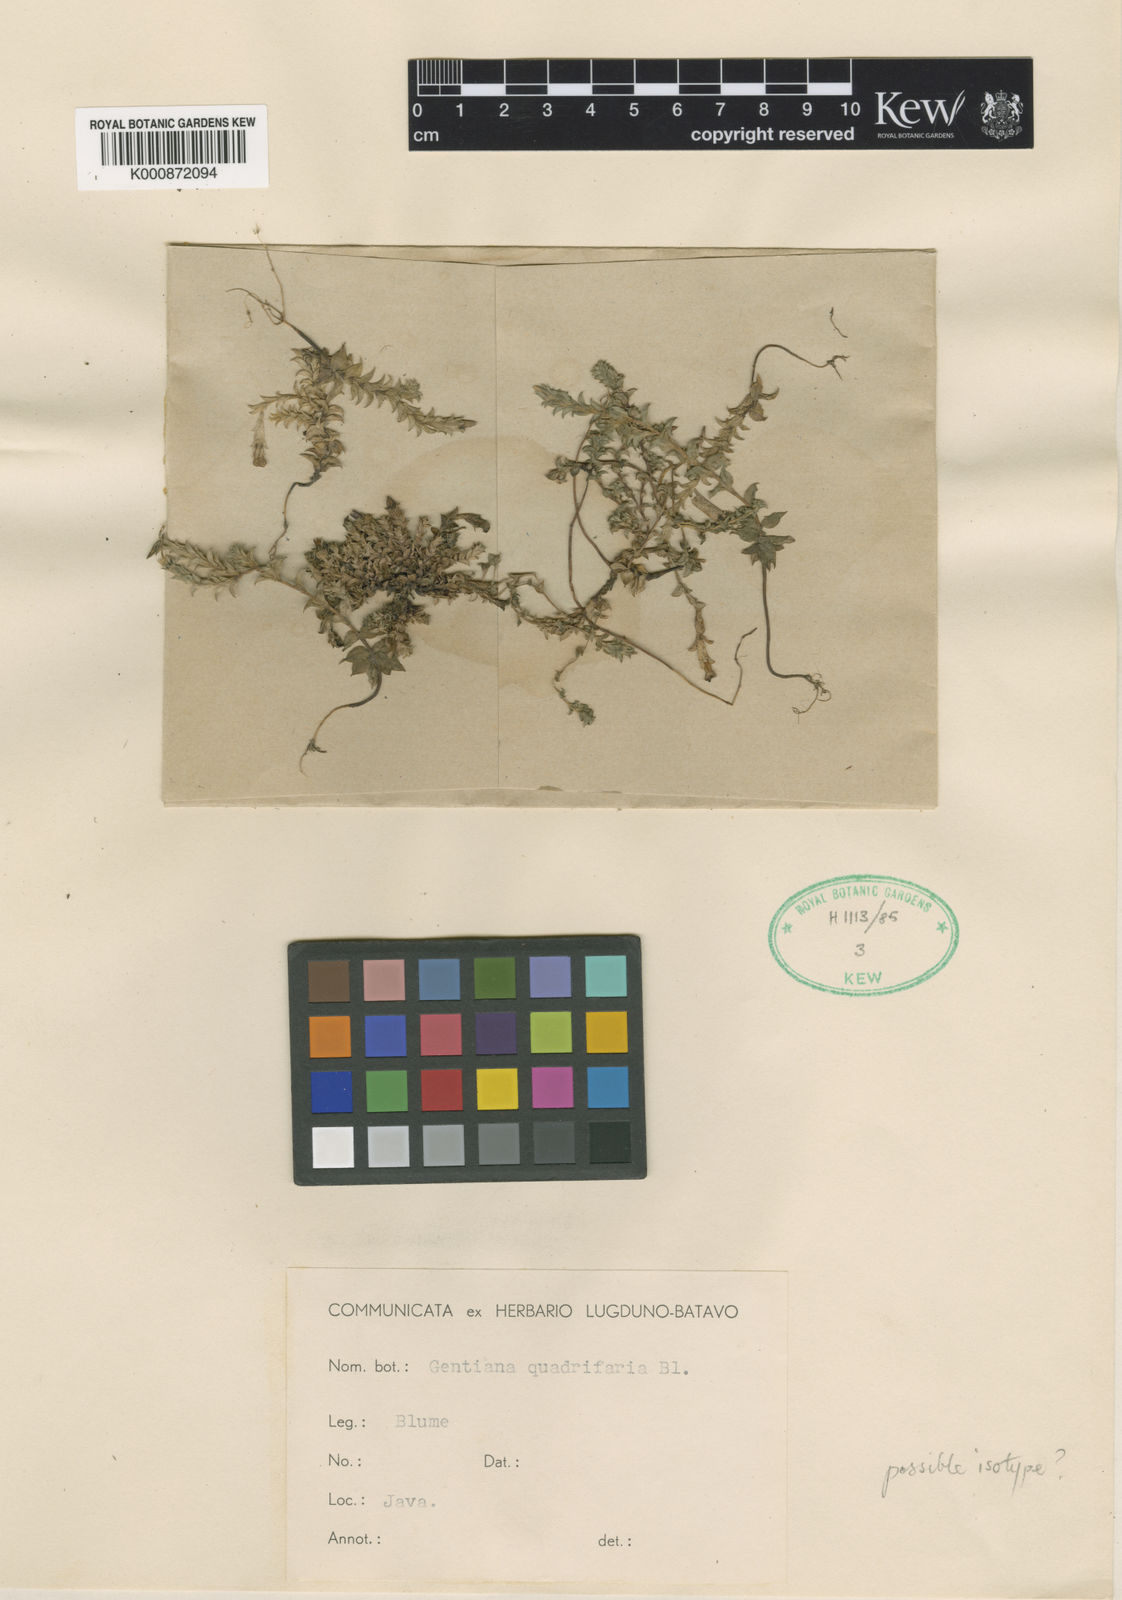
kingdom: Plantae
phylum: Tracheophyta
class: Magnoliopsida
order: Gentianales
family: Gentianaceae
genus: Gentiana
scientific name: Gentiana quadrifaria
